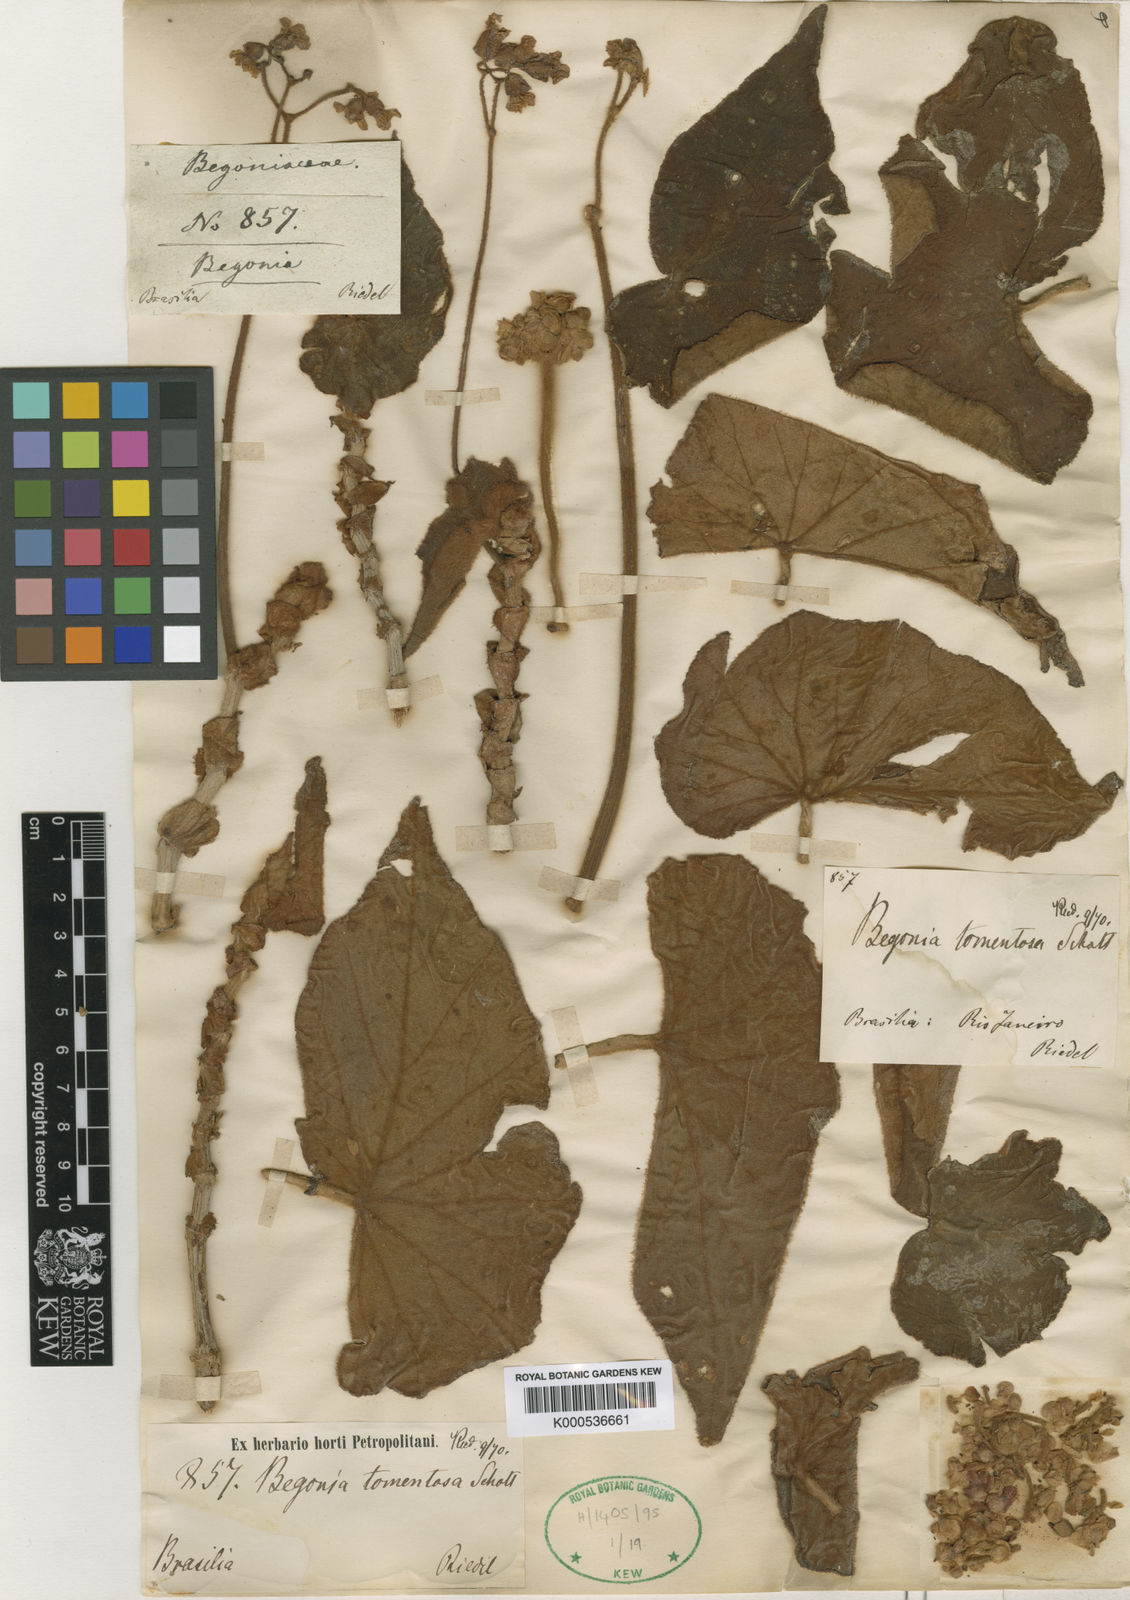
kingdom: Plantae
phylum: Tracheophyta
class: Magnoliopsida
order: Cucurbitales
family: Begoniaceae
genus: Begonia
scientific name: Begonia tomentosa
